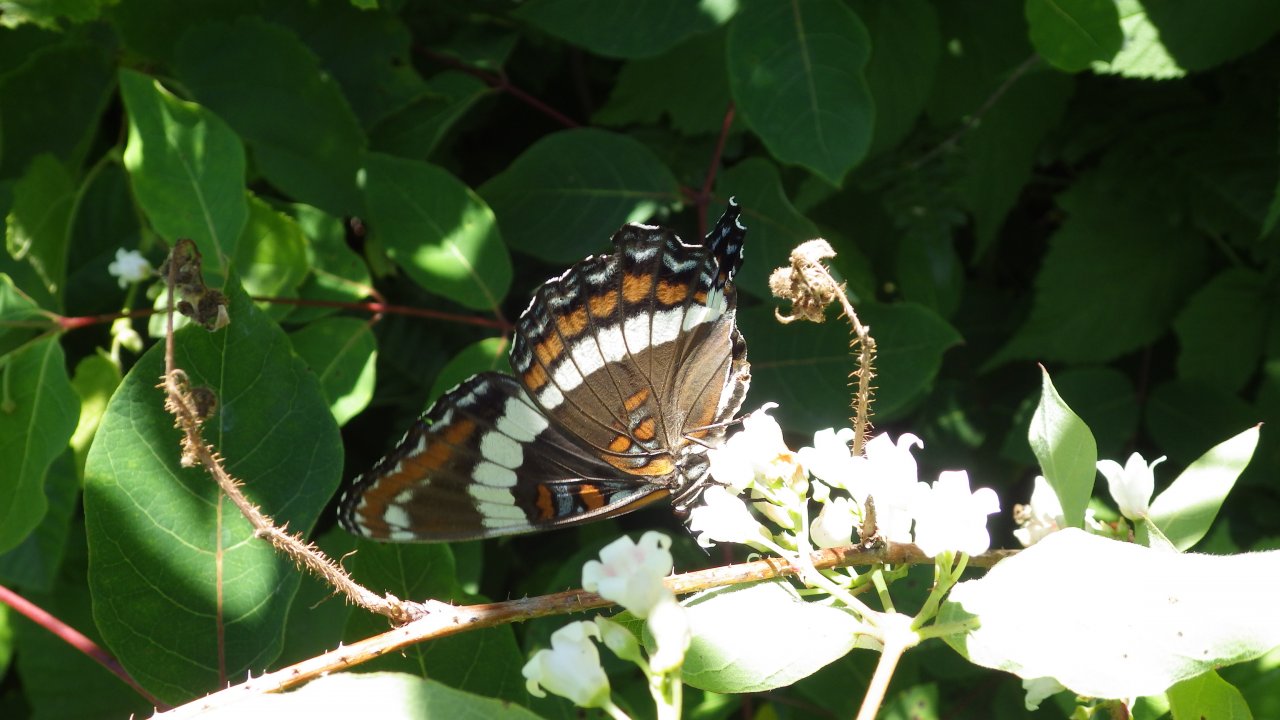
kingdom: Animalia
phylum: Arthropoda
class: Insecta
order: Lepidoptera
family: Nymphalidae
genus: Limenitis
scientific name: Limenitis arthemis
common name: Red-spotted Admiral
